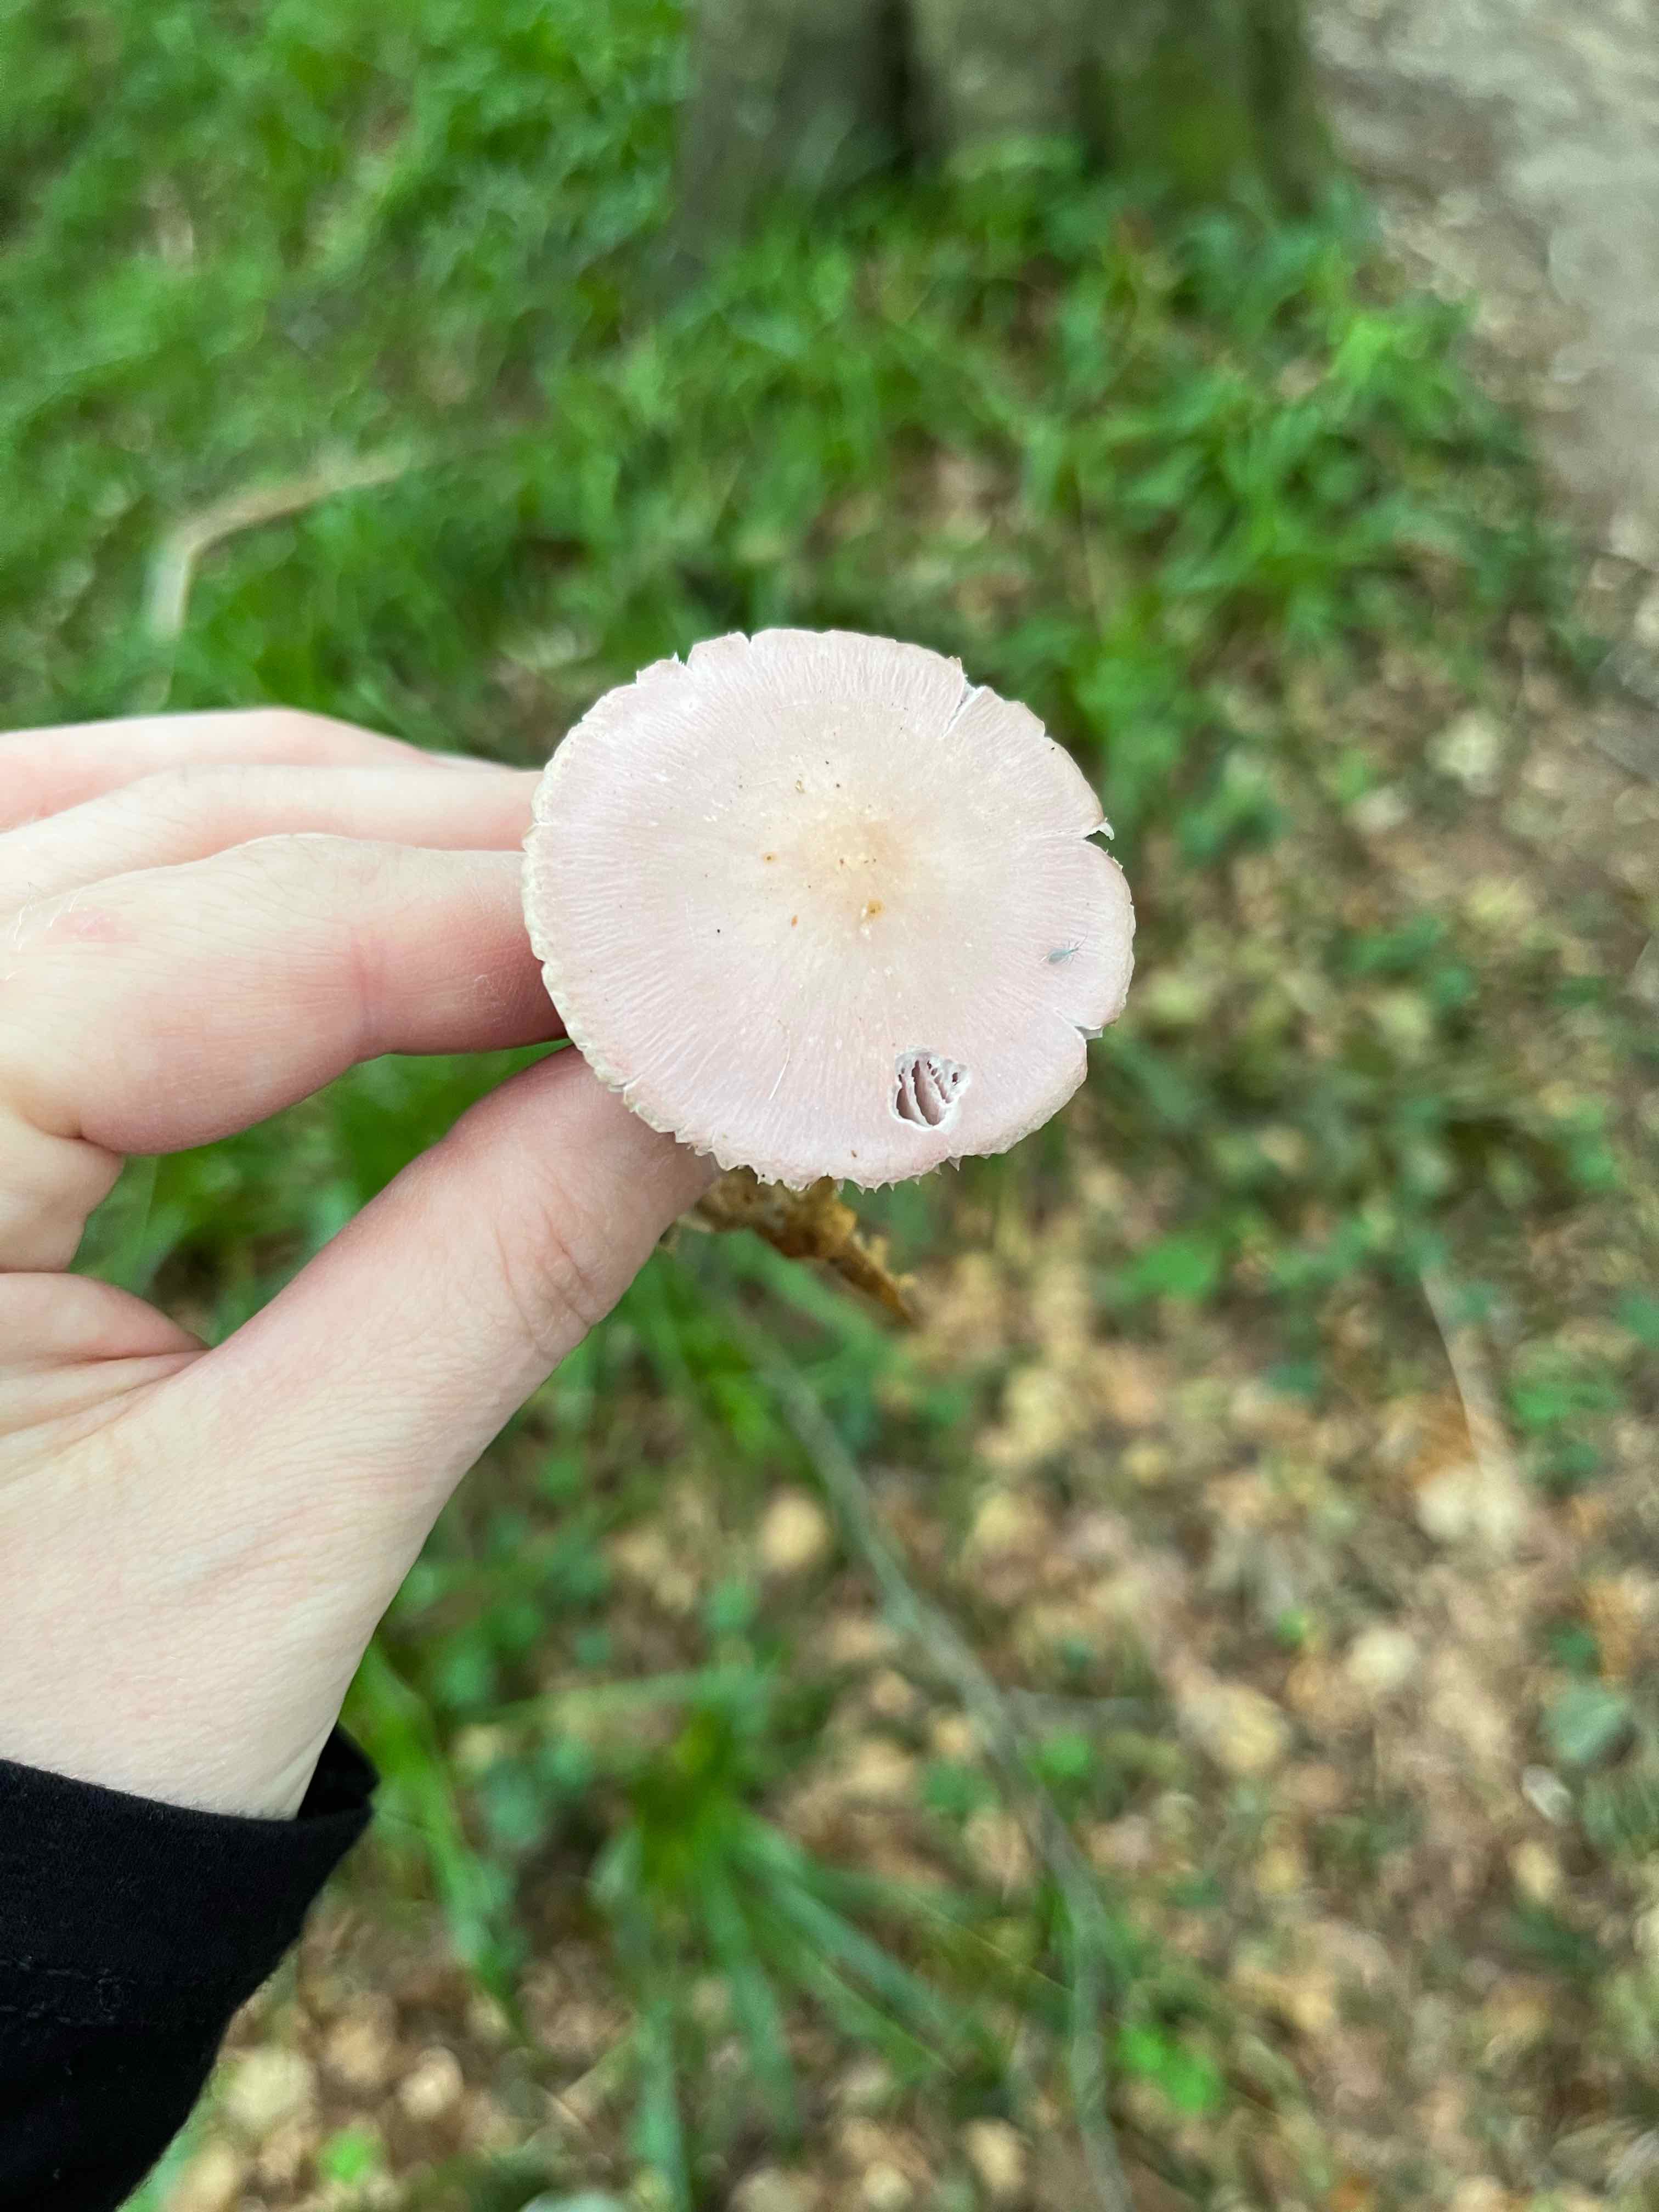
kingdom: Fungi
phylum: Basidiomycota
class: Agaricomycetes
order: Agaricales
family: Mycenaceae
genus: Mycena
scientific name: Mycena rosea
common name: rosa huesvamp
